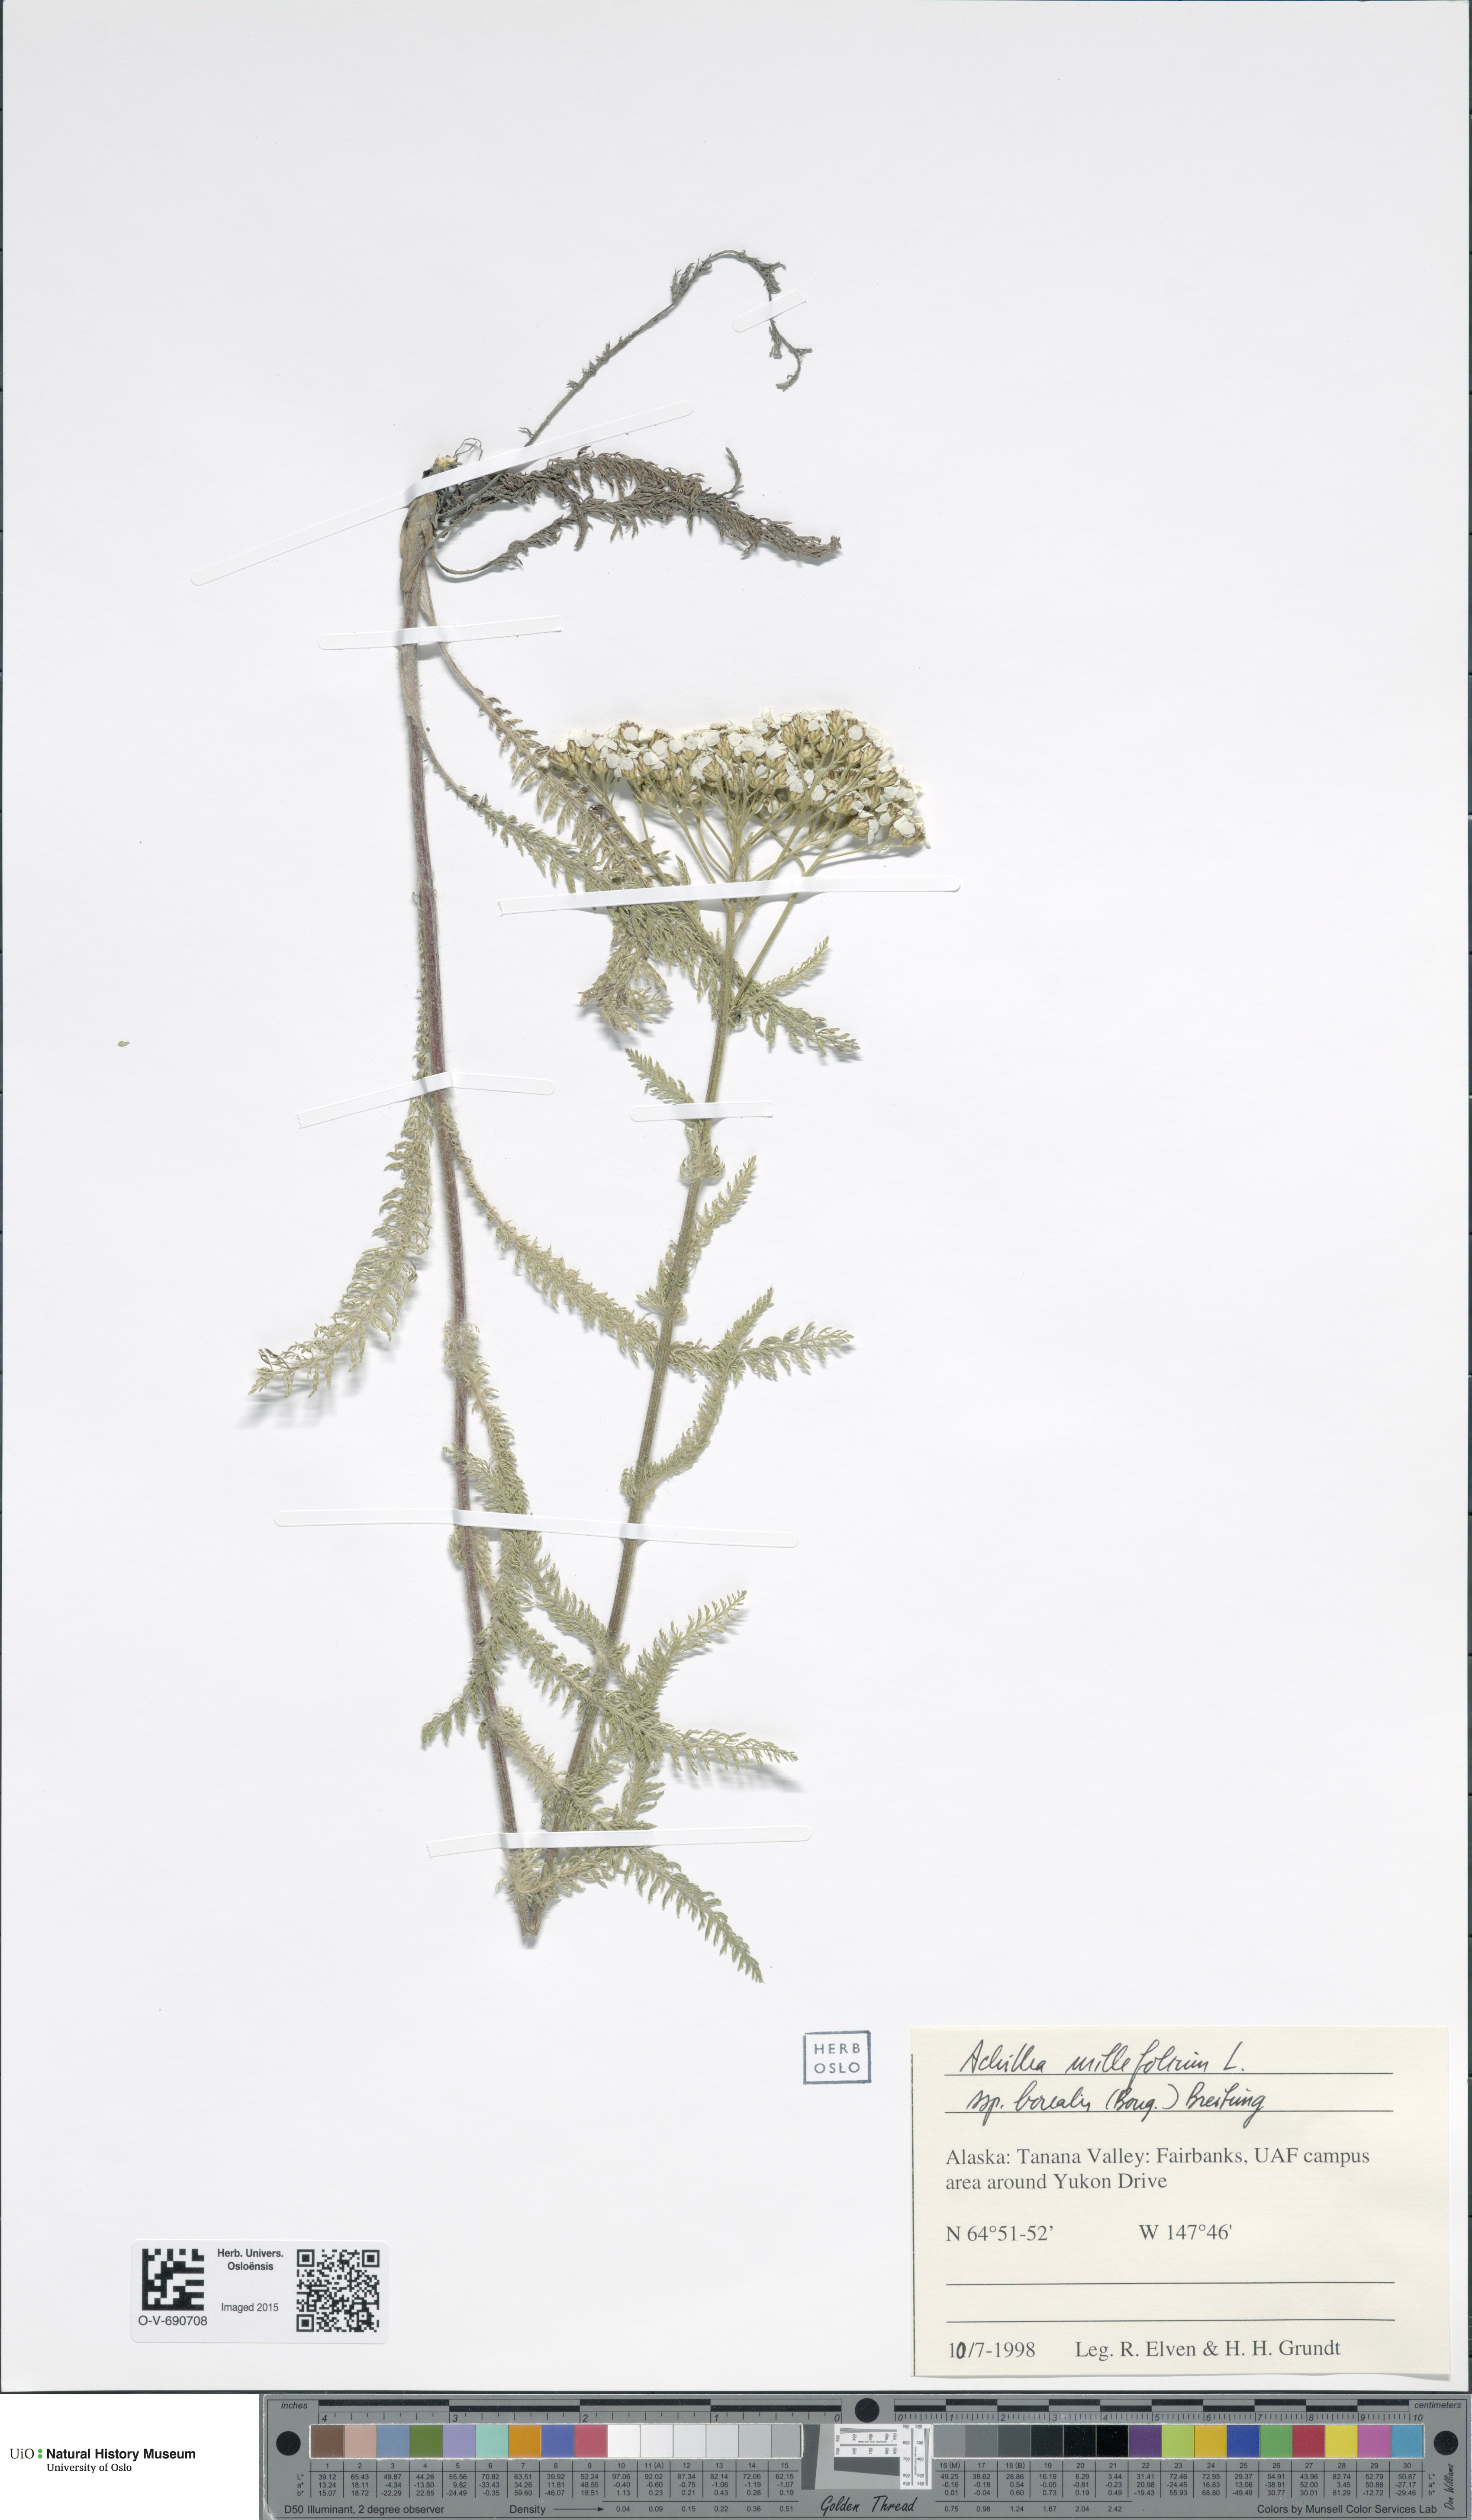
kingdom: Plantae
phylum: Tracheophyta
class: Magnoliopsida
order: Asterales
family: Asteraceae
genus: Achillea
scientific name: Achillea millefolium
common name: Yarrow
